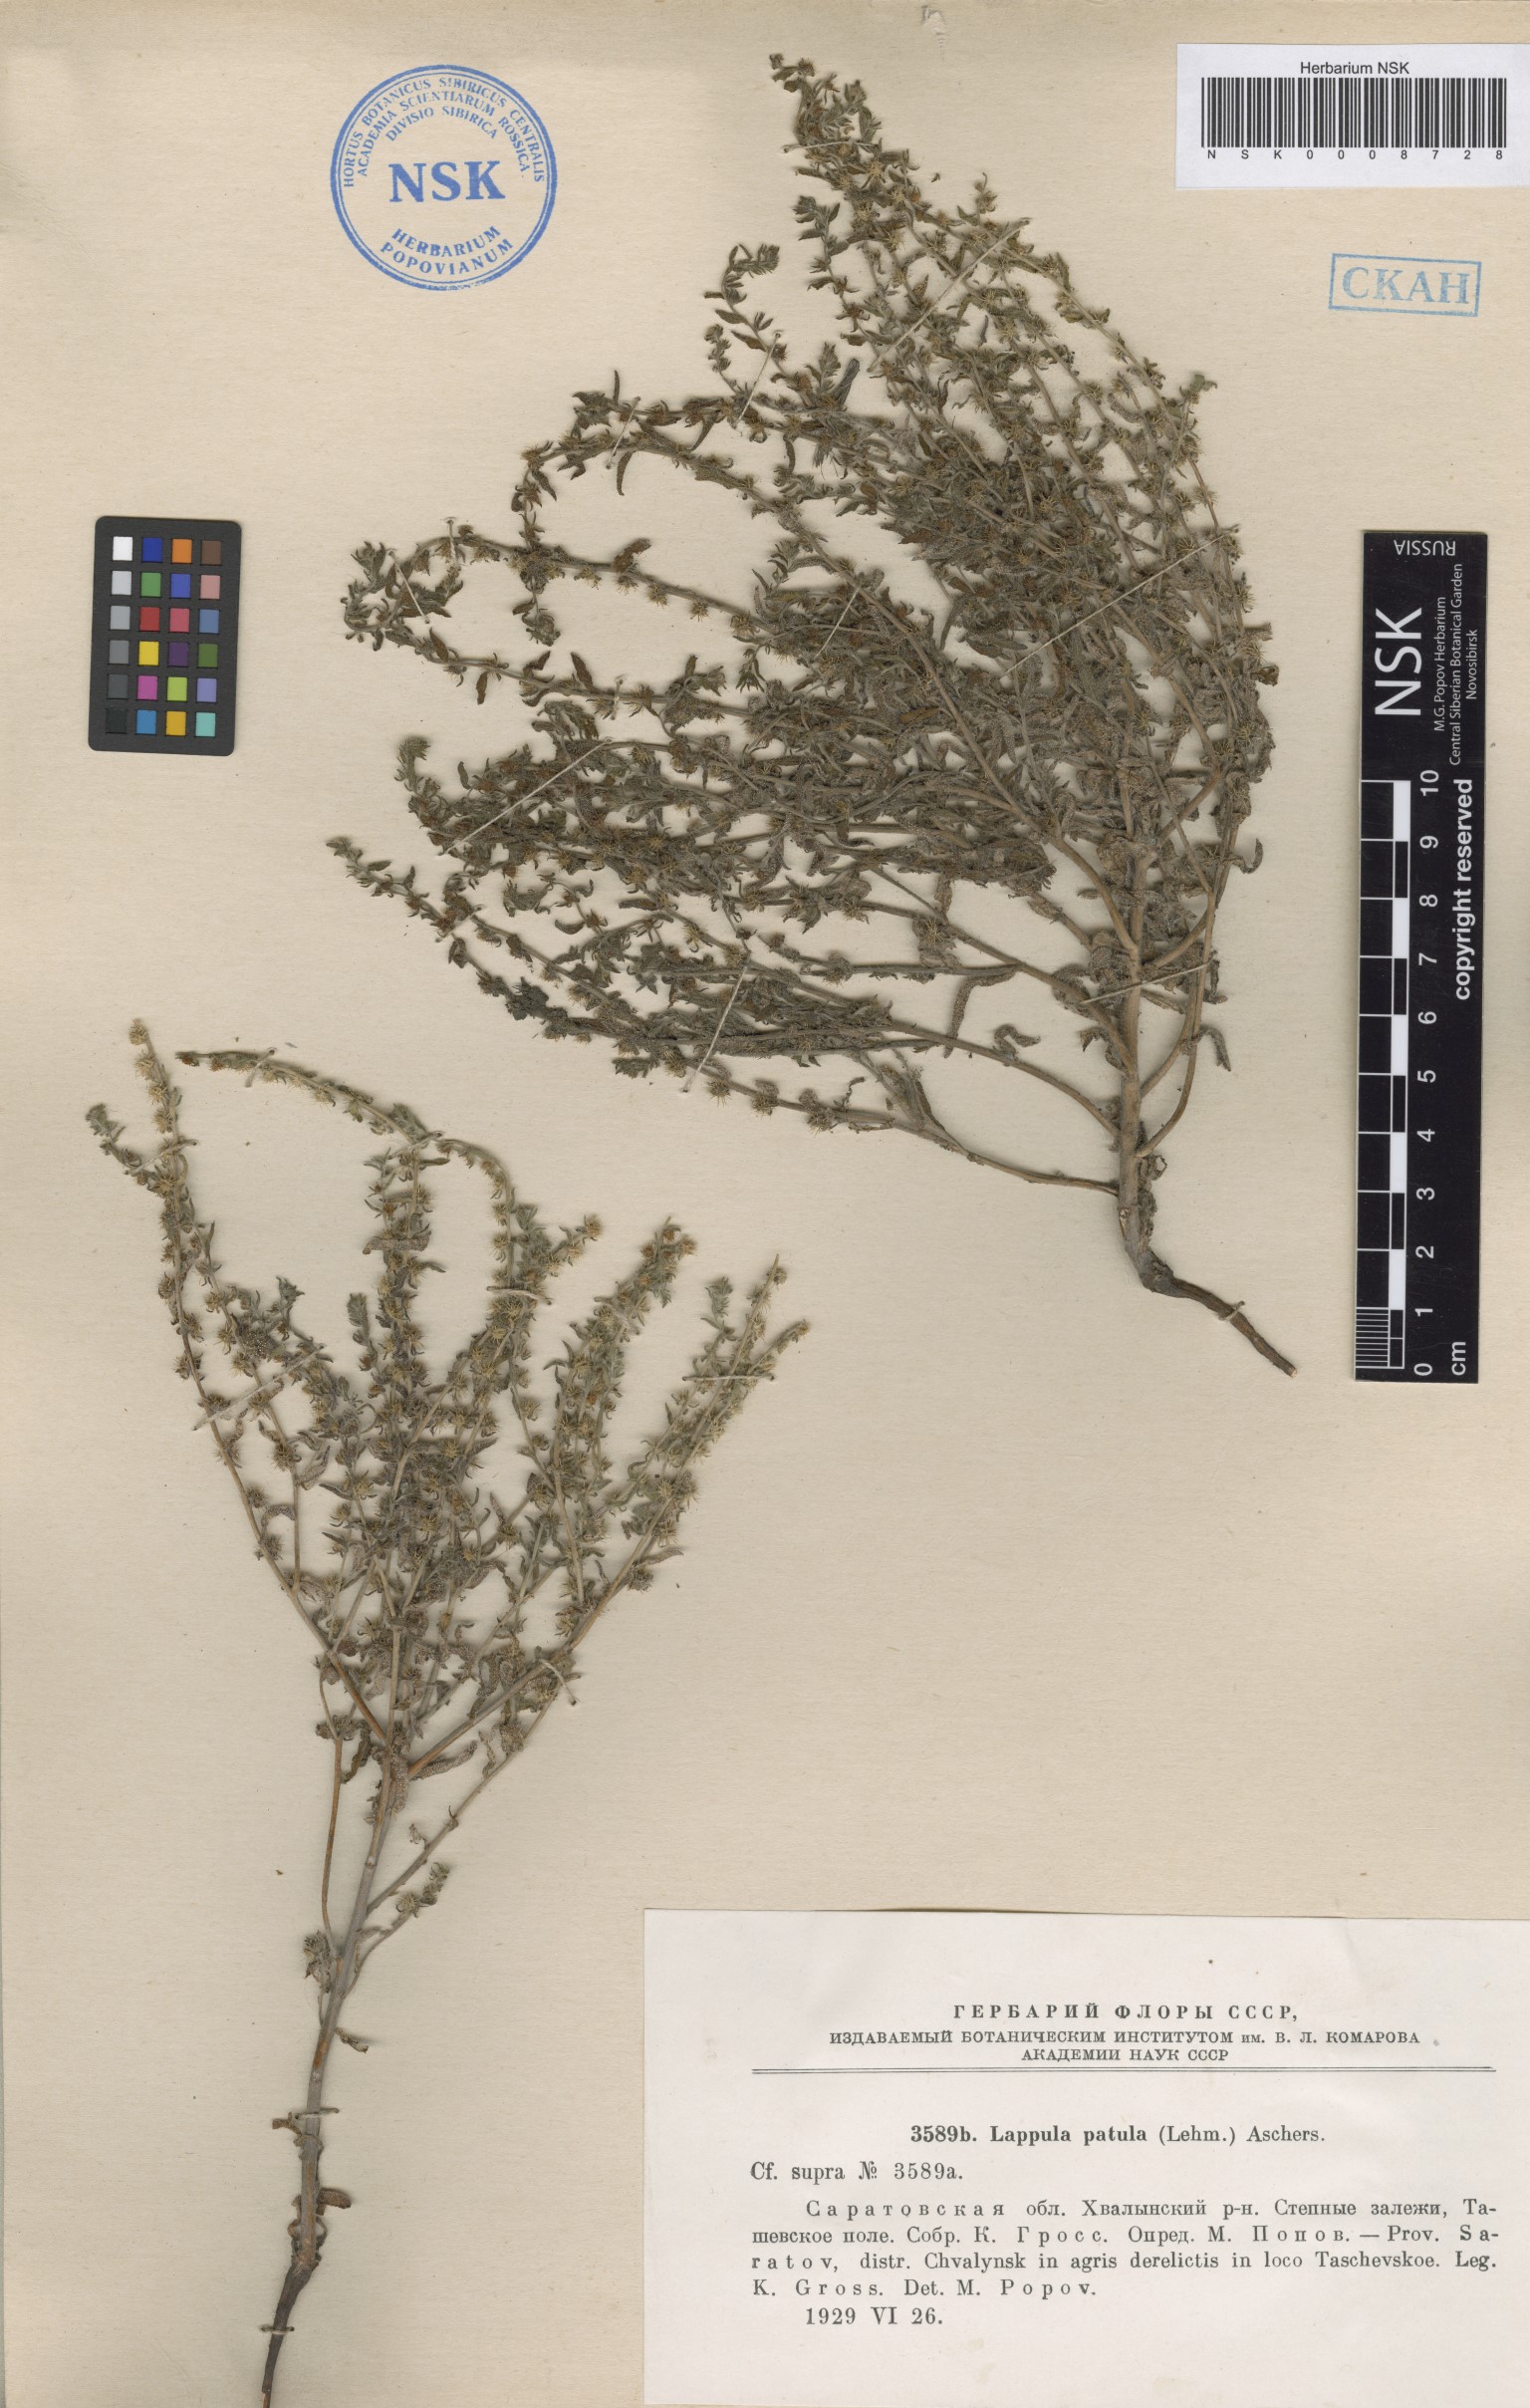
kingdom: Plantae
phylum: Tracheophyta
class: Magnoliopsida
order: Boraginales
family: Boraginaceae
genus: Lappula
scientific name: Lappula patula
